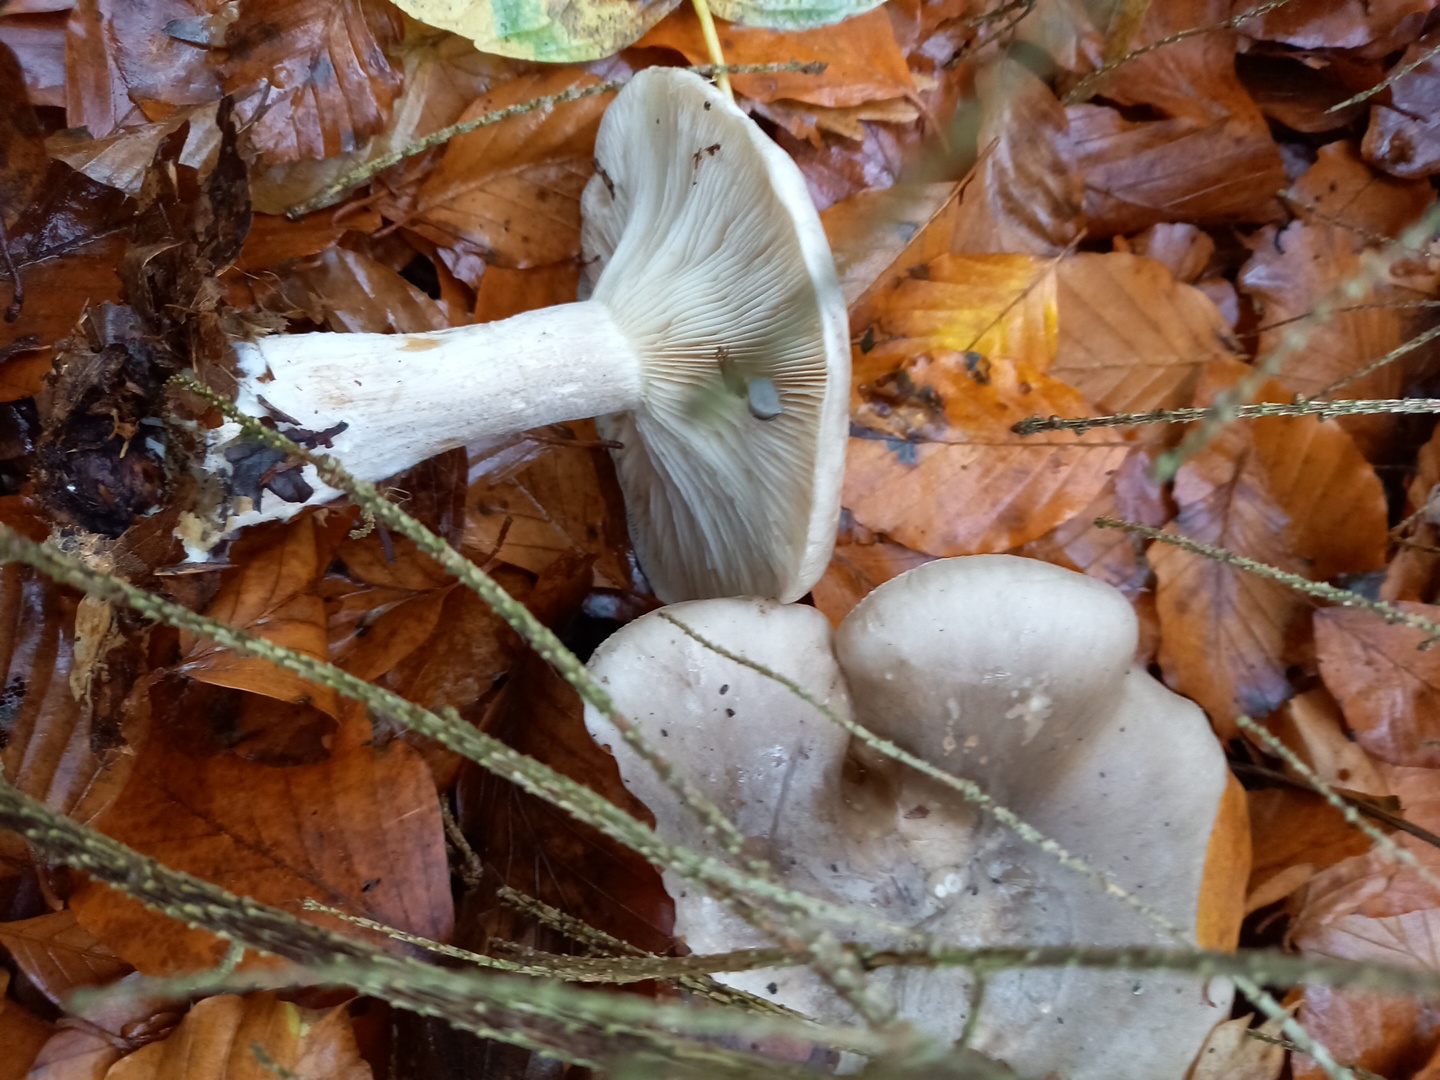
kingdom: Fungi
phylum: Basidiomycota
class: Agaricomycetes
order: Agaricales
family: Tricholomataceae
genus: Clitocybe
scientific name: Clitocybe nebularis
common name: tåge-tragthat
